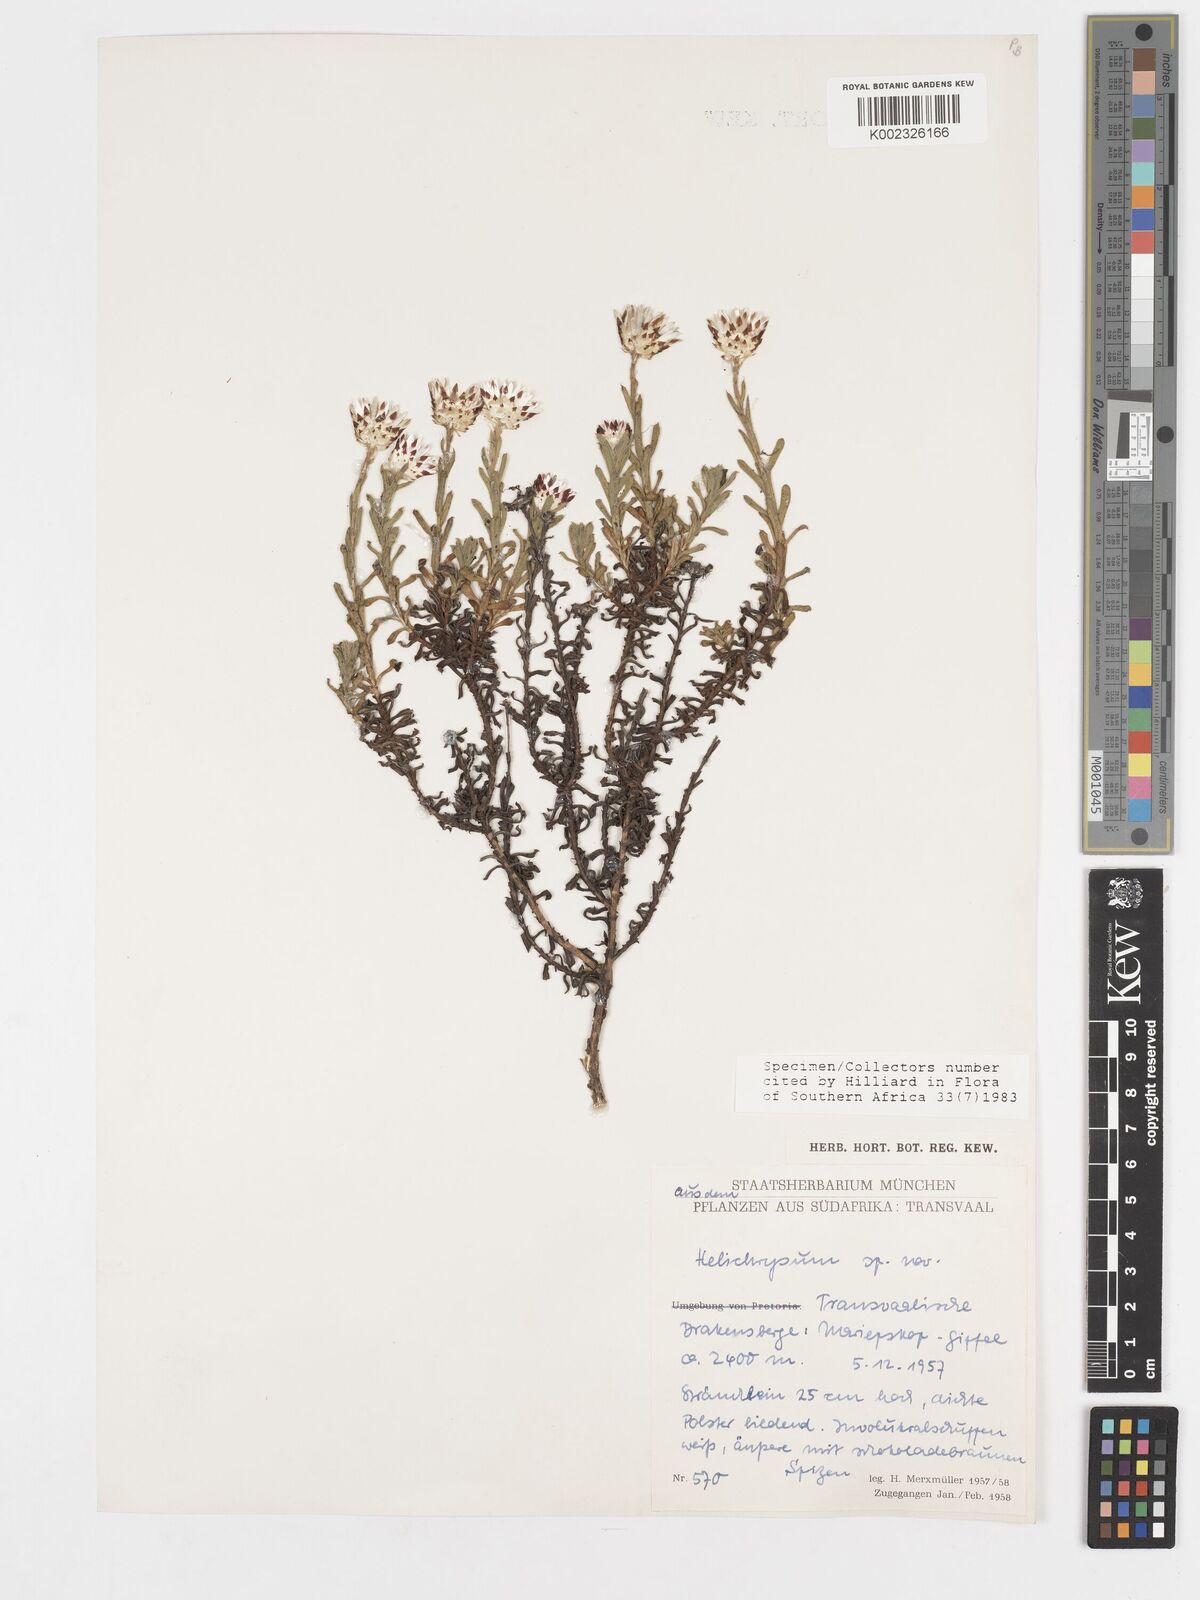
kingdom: Plantae
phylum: Tracheophyta
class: Magnoliopsida
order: Asterales
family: Asteraceae
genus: Helichrysum
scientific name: Helichrysum mariepscopicum
